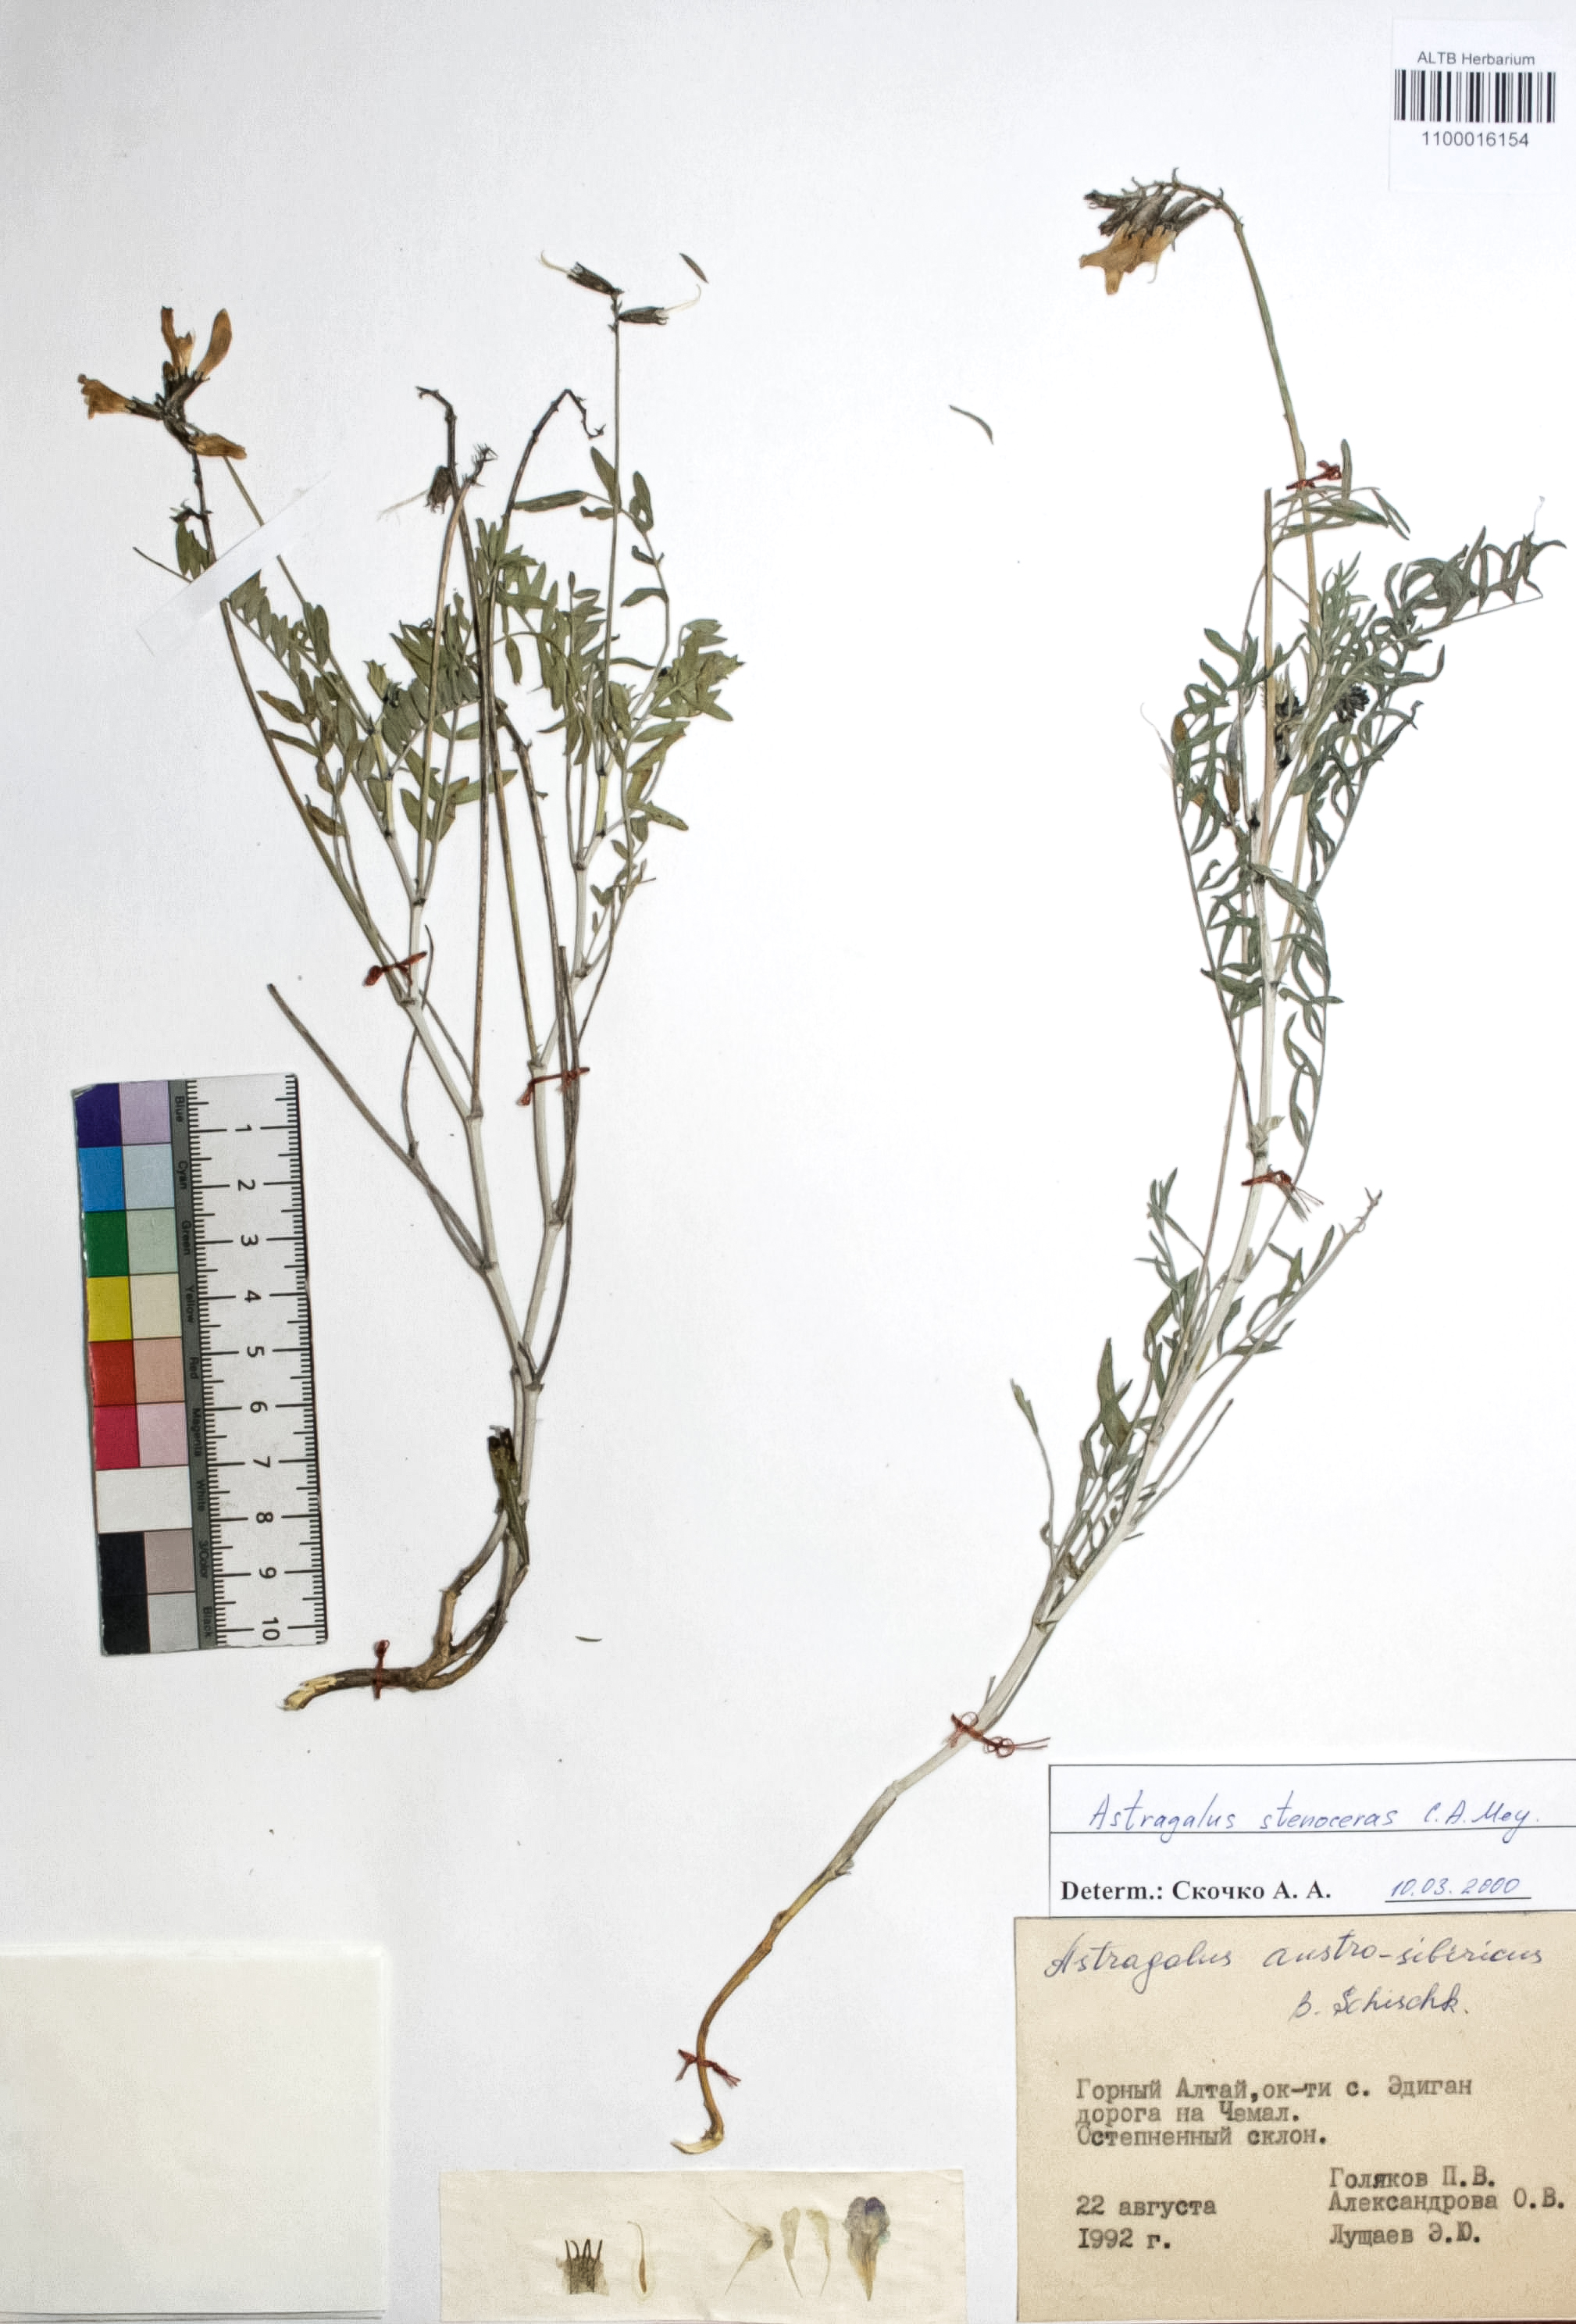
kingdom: Plantae
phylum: Tracheophyta
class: Magnoliopsida
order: Fabales
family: Fabaceae
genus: Astragalus
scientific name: Astragalus stenoceras
